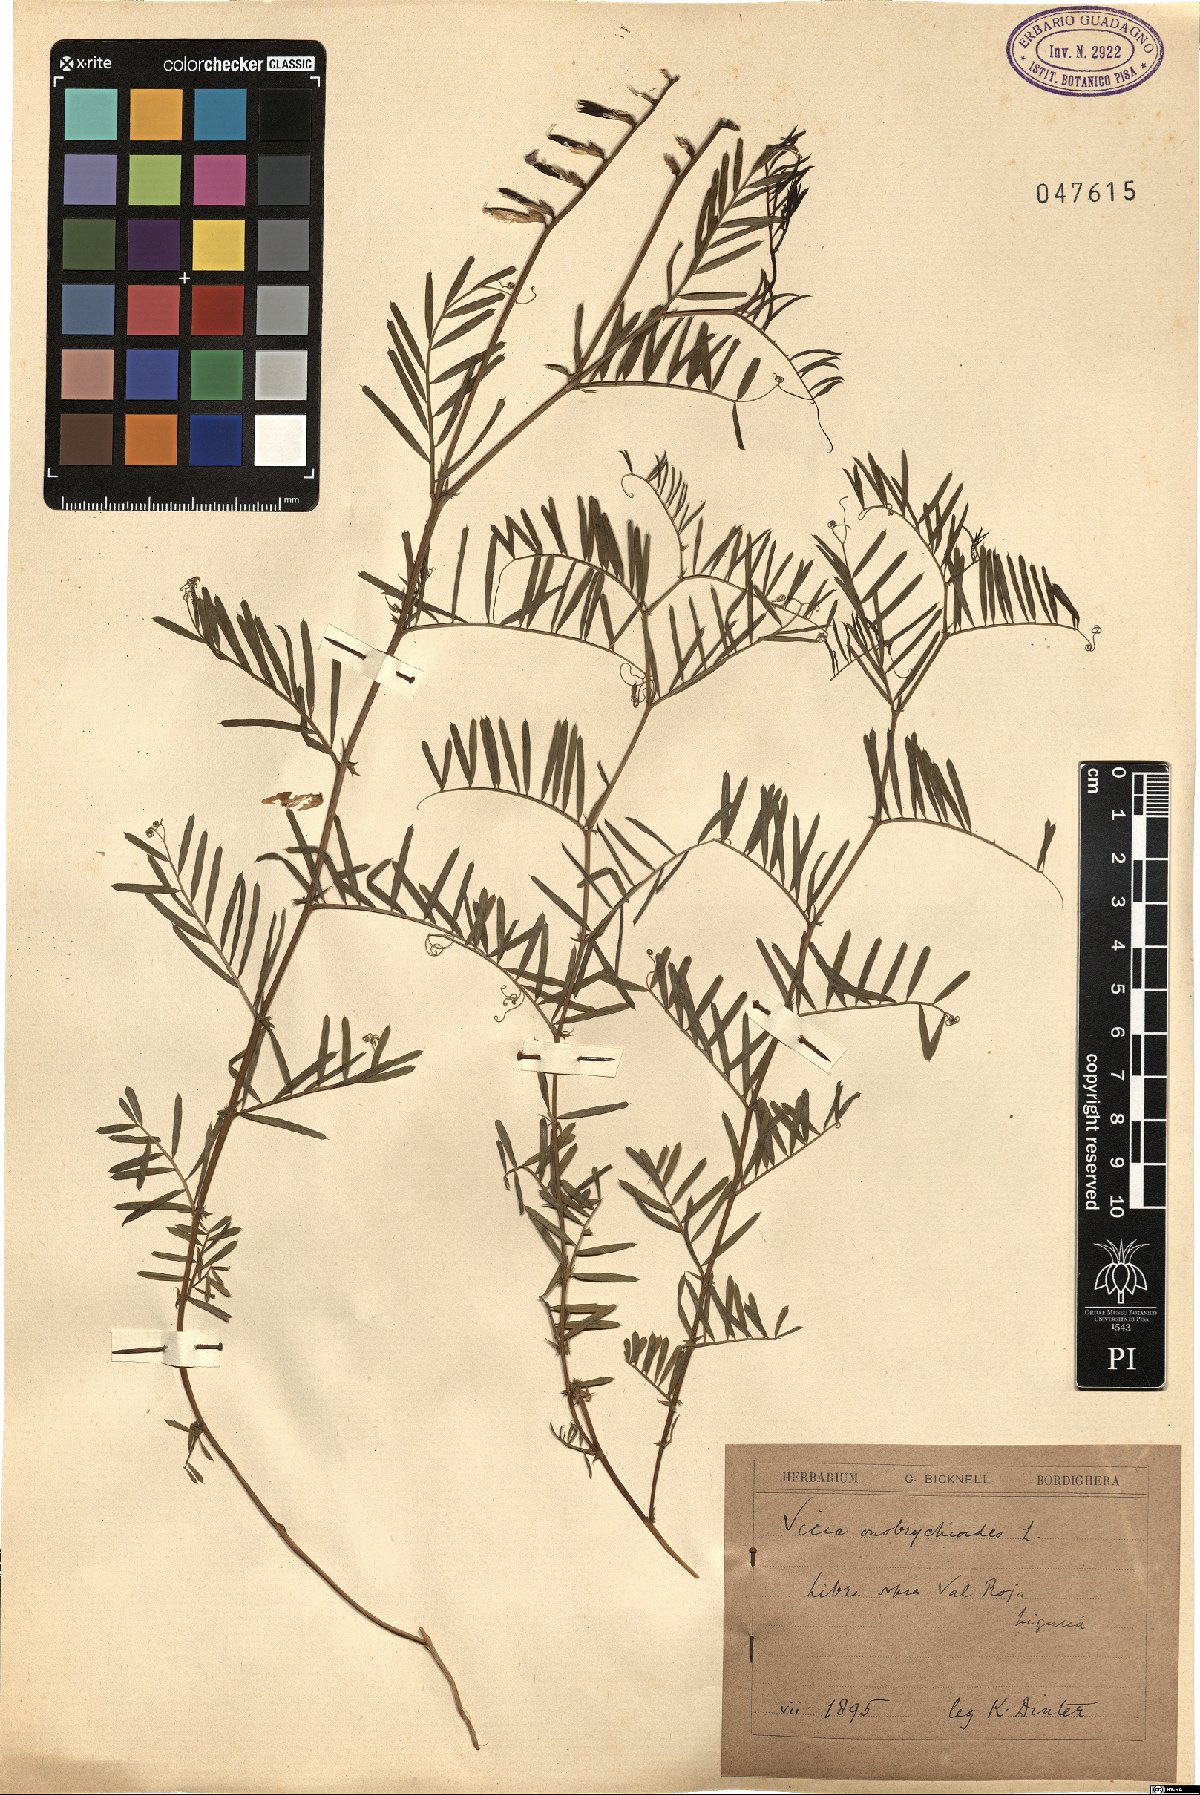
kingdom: Plantae
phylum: Tracheophyta
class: Magnoliopsida
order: Fabales
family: Fabaceae
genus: Vicia
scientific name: Vicia onobrychioides
